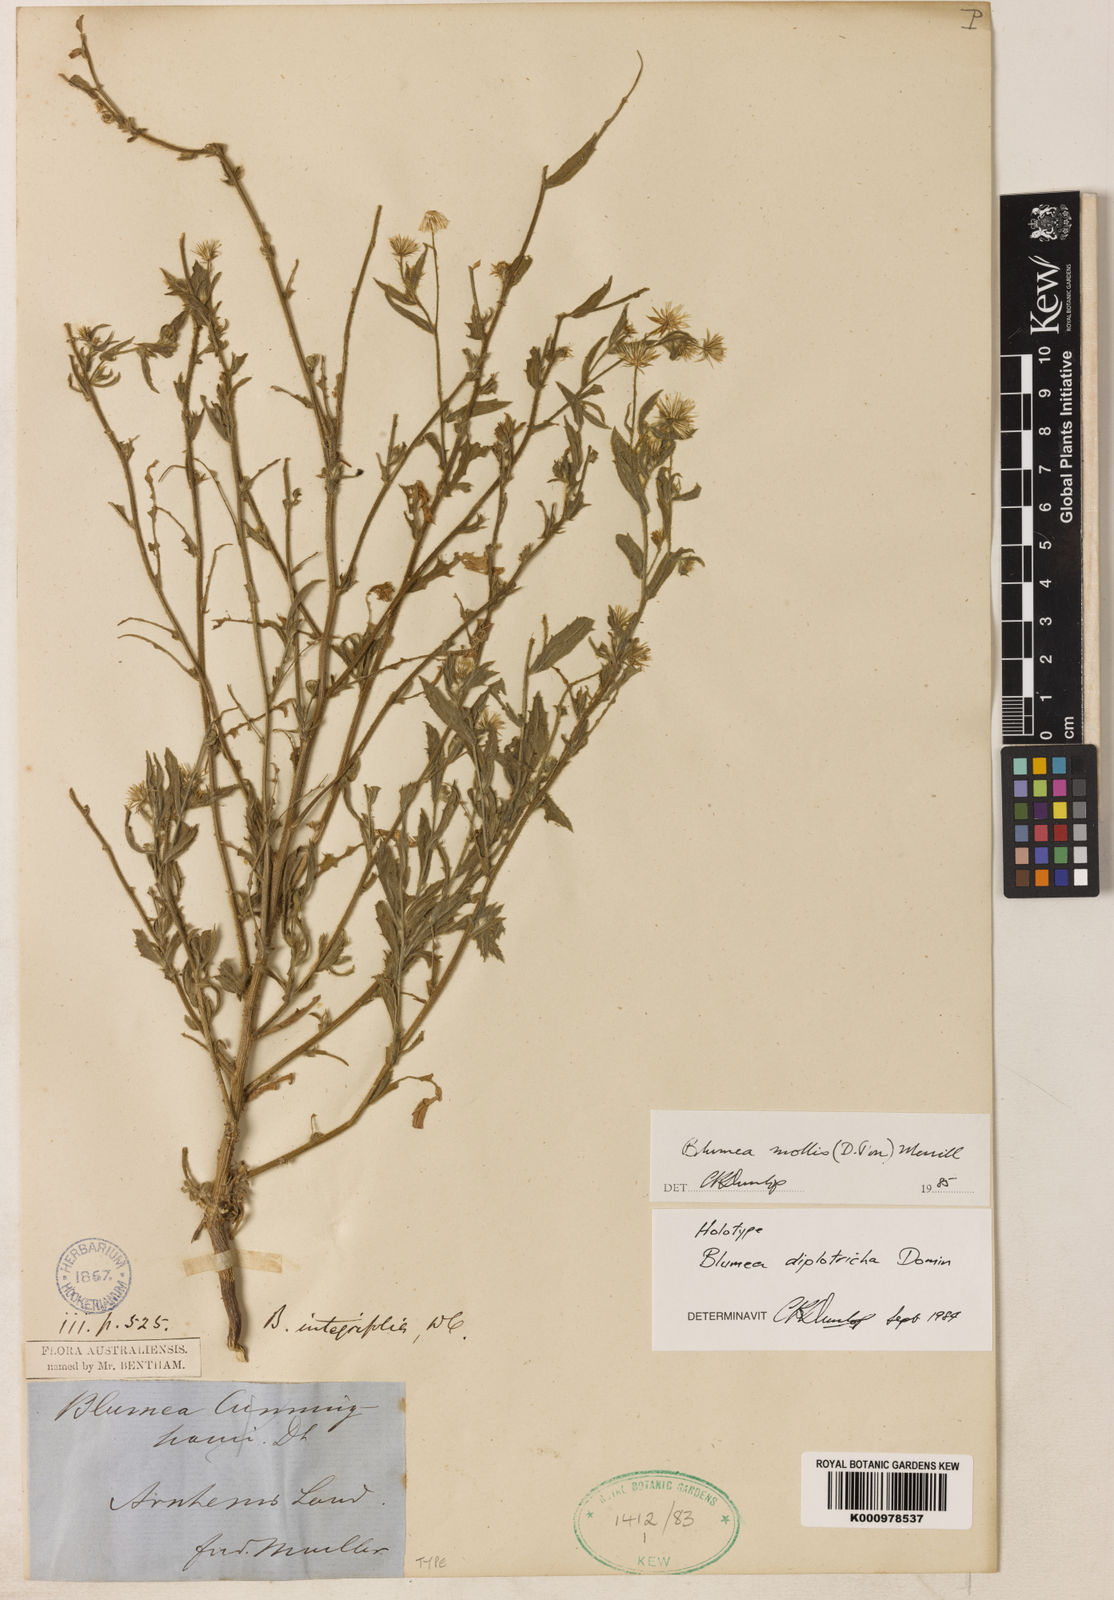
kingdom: Plantae
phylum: Tracheophyta
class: Magnoliopsida
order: Asterales
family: Asteraceae
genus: Blumea
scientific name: Blumea axillaris
